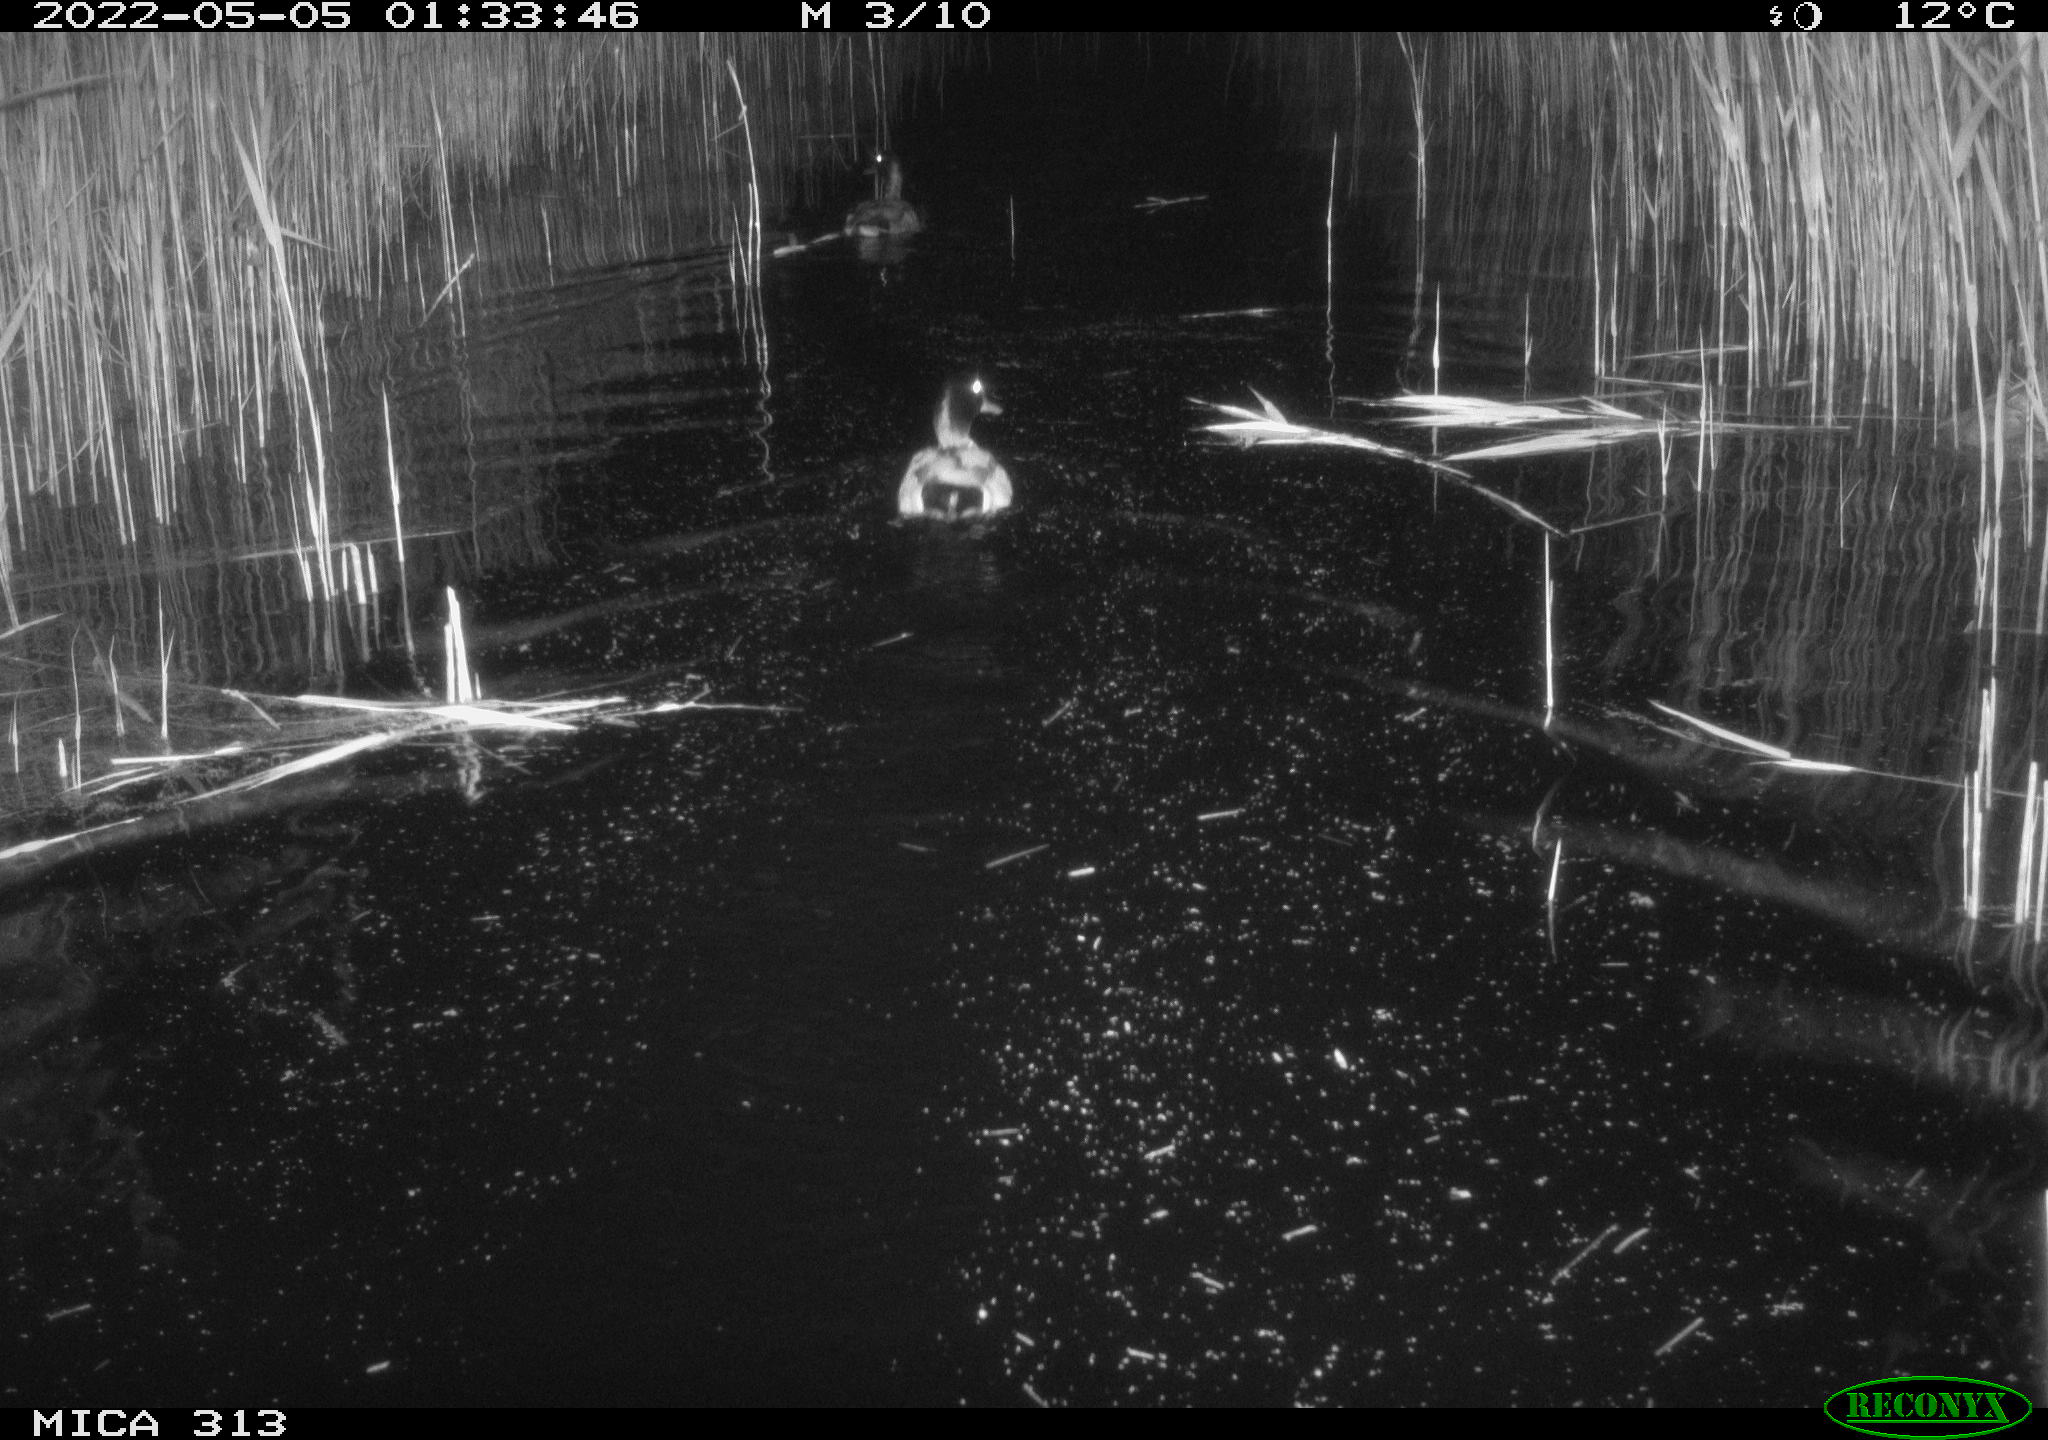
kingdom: Animalia
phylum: Chordata
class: Aves
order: Anseriformes
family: Anatidae
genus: Anas
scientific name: Anas platyrhynchos
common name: Mallard
